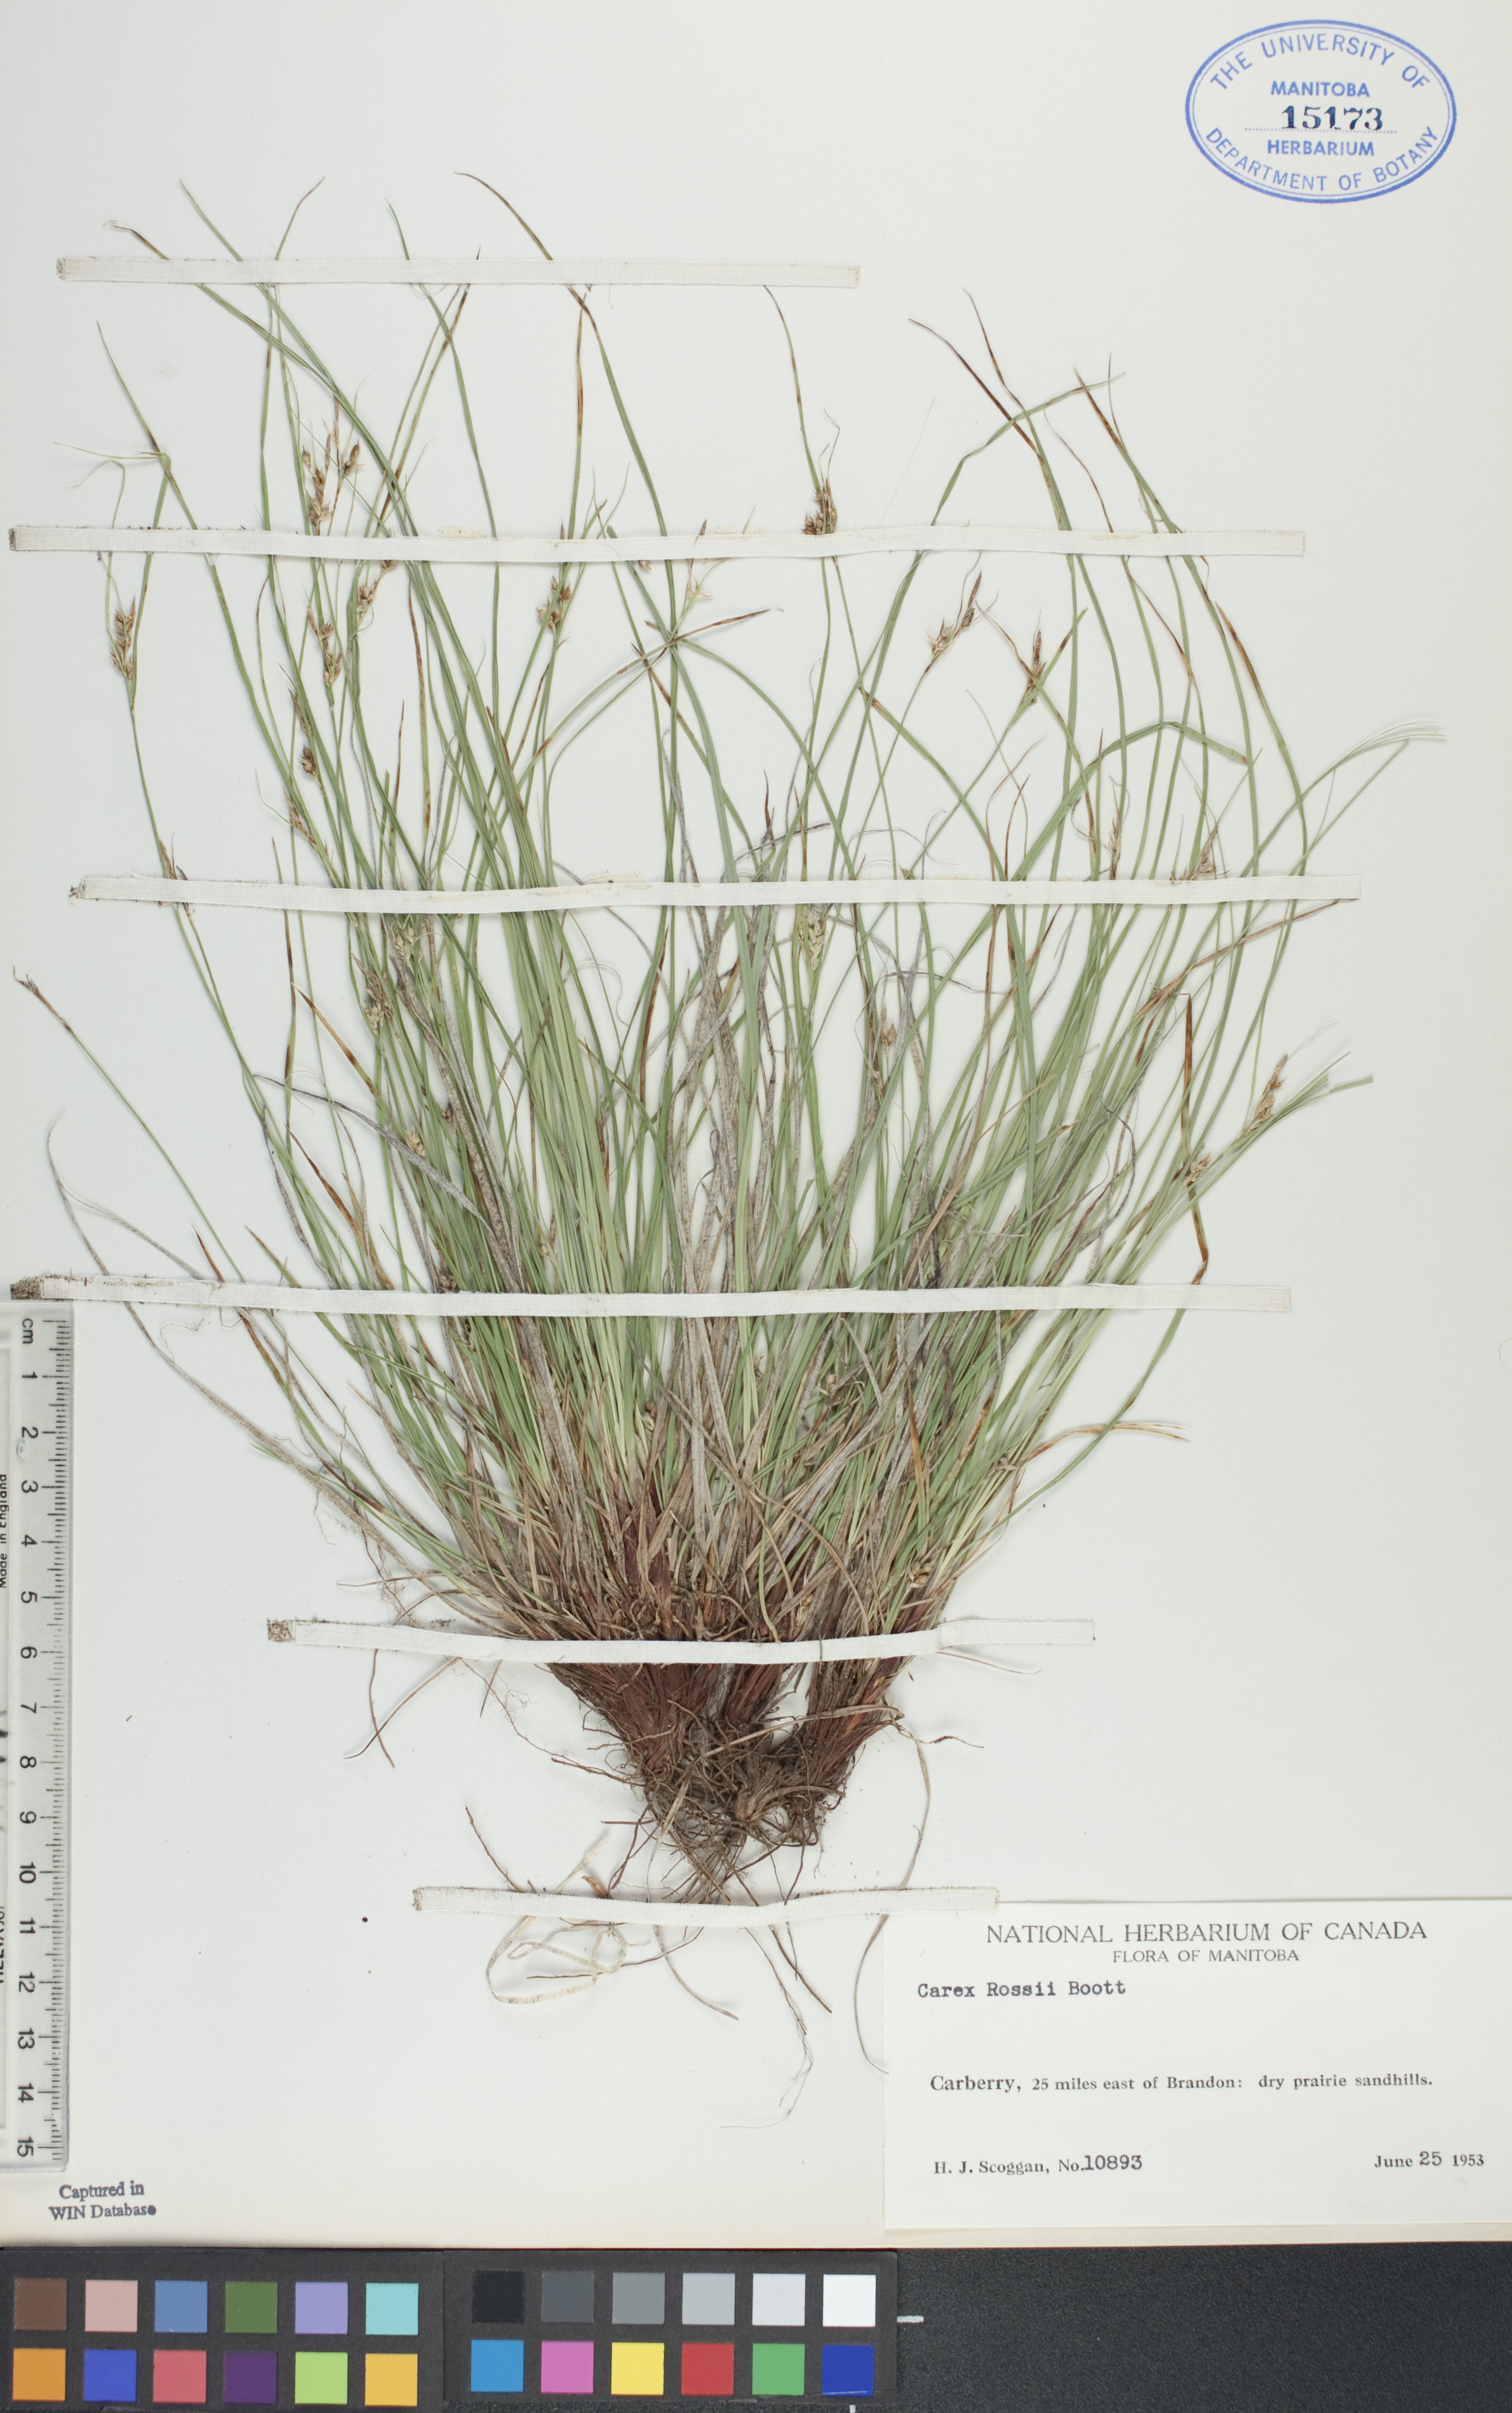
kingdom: Plantae
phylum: Tracheophyta
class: Liliopsida
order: Poales
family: Cyperaceae
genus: Carex
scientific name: Carex rossii
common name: Ross' sedge
